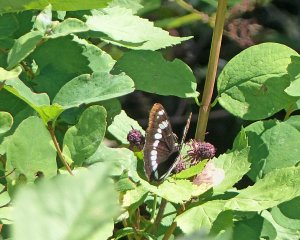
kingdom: Animalia
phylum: Arthropoda
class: Insecta
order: Lepidoptera
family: Nymphalidae
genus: Limenitis
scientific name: Limenitis lorquini
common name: Lorquin's Admiral
